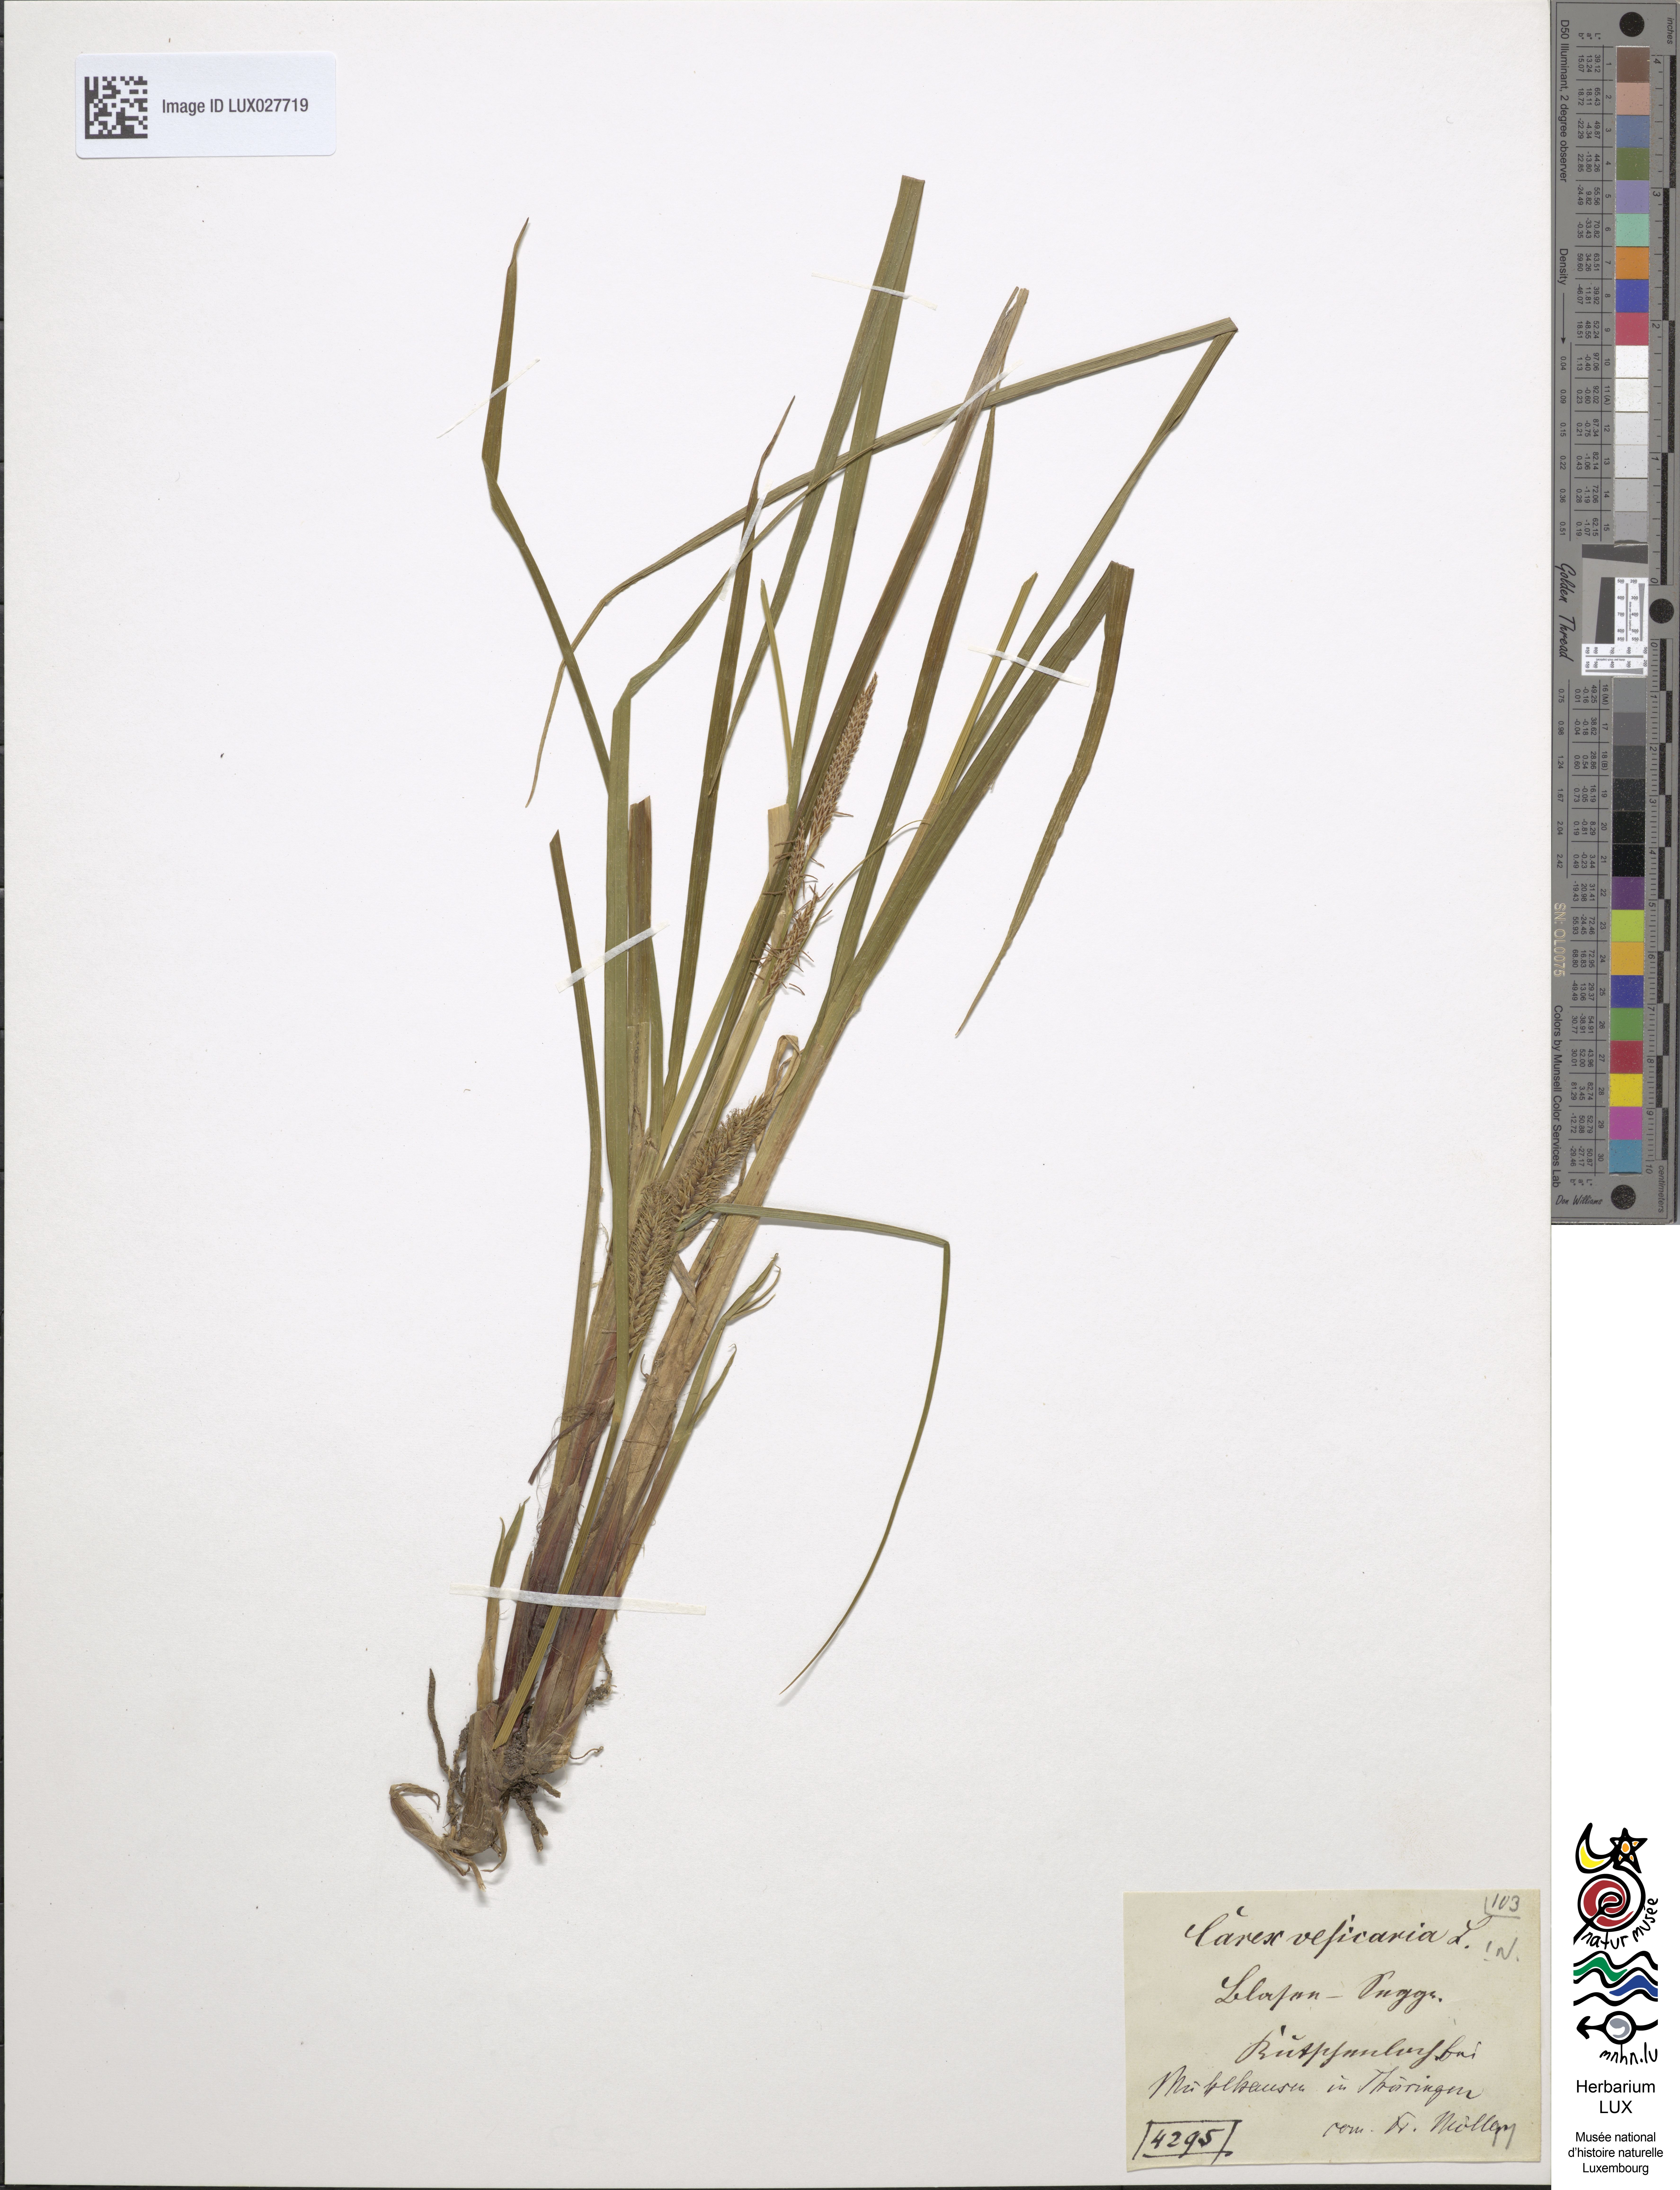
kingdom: Plantae
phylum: Tracheophyta
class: Liliopsida
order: Poales
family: Cyperaceae
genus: Carex
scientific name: Carex vesicaria
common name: Bladder-sedge
